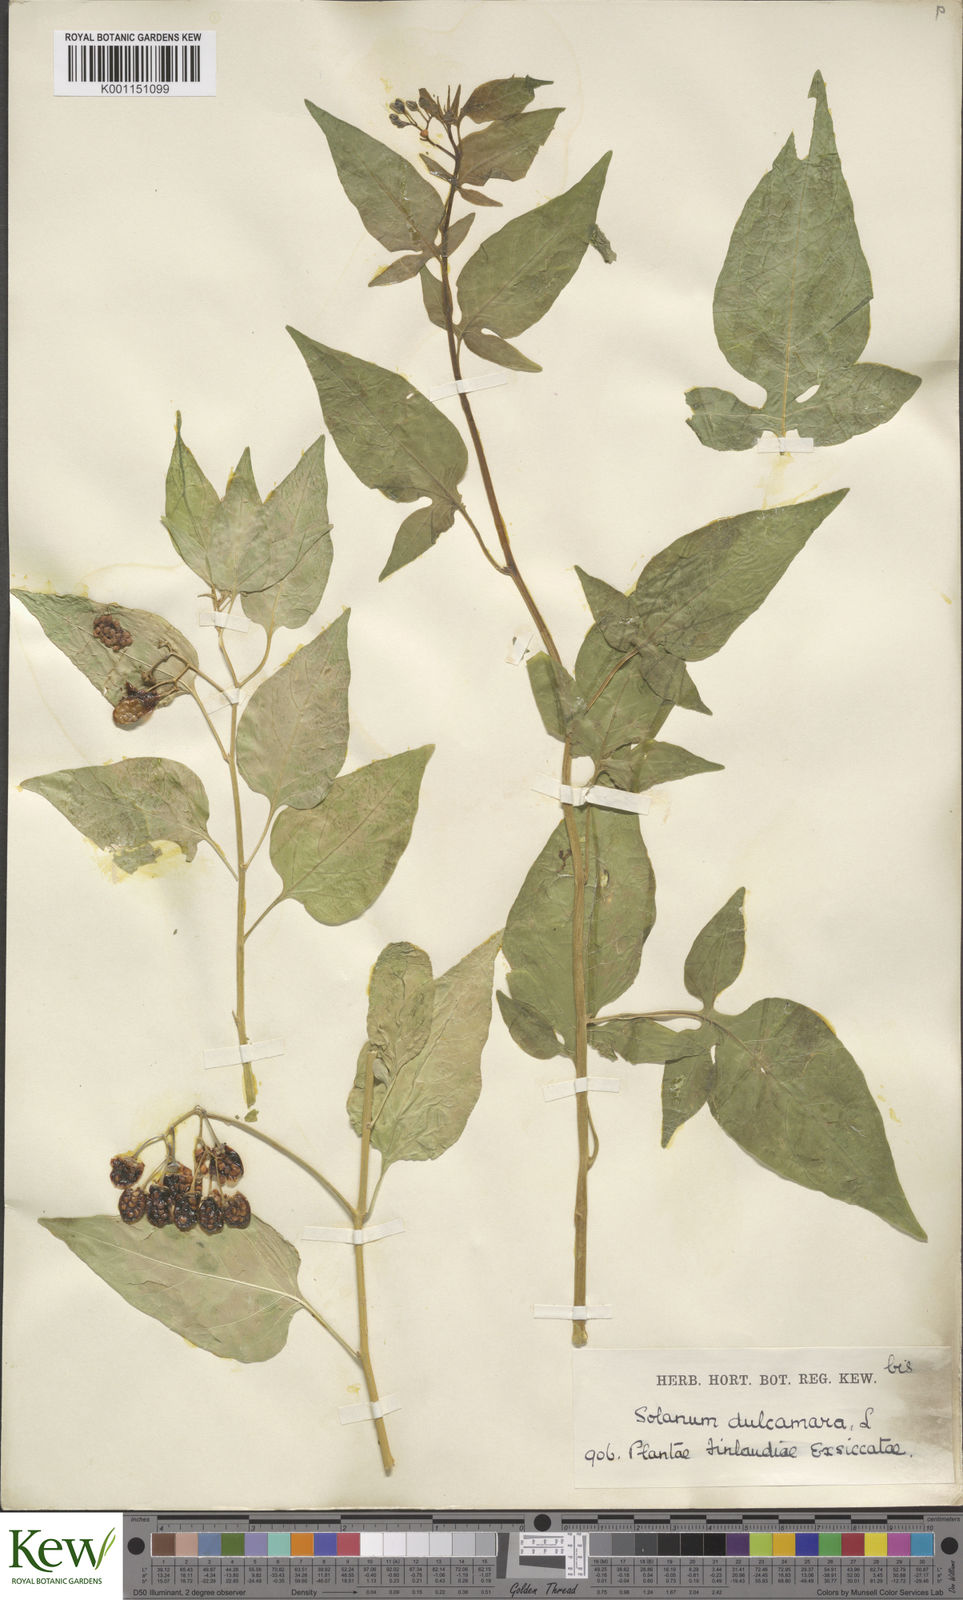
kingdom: Plantae
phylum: Tracheophyta
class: Magnoliopsida
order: Solanales
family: Solanaceae
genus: Solanum
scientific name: Solanum dulcamara
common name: Climbing nightshade
